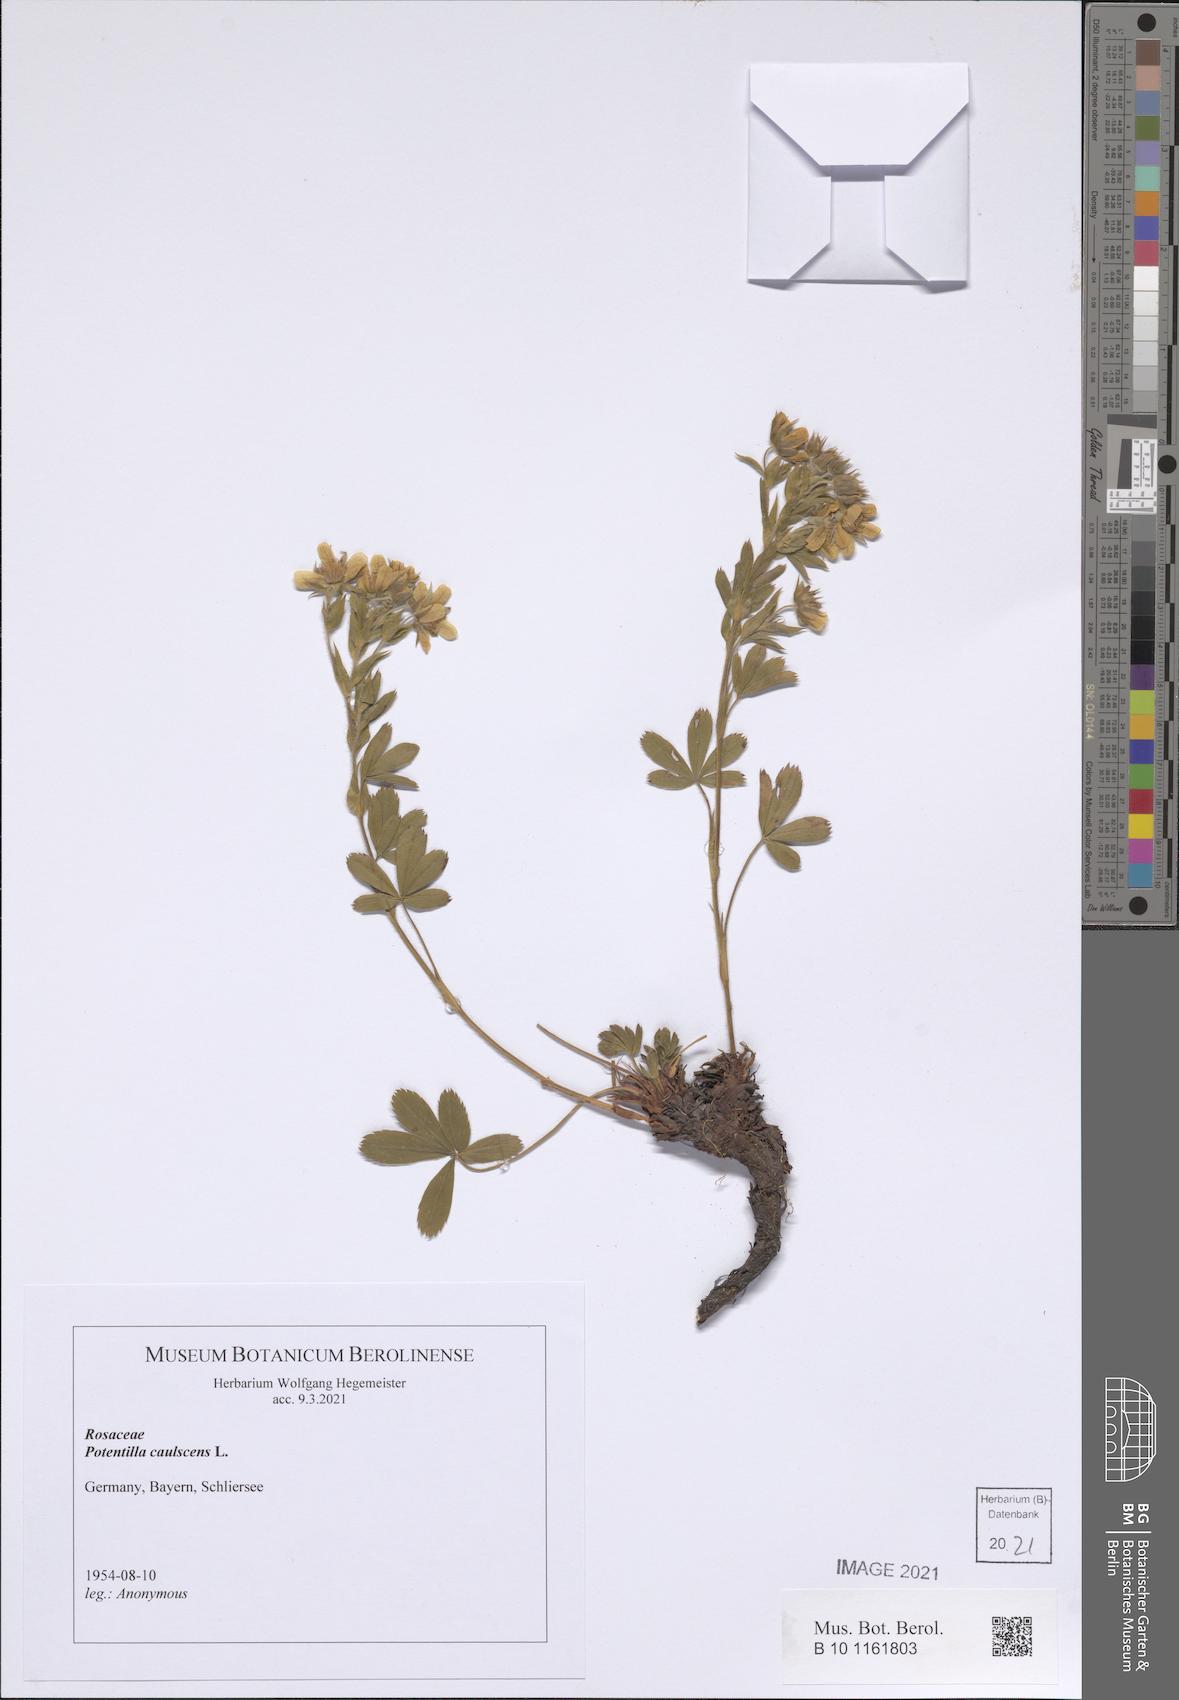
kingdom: Plantae
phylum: Tracheophyta
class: Magnoliopsida
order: Rosales
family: Rosaceae
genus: Potentilla
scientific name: Potentilla caulescens
